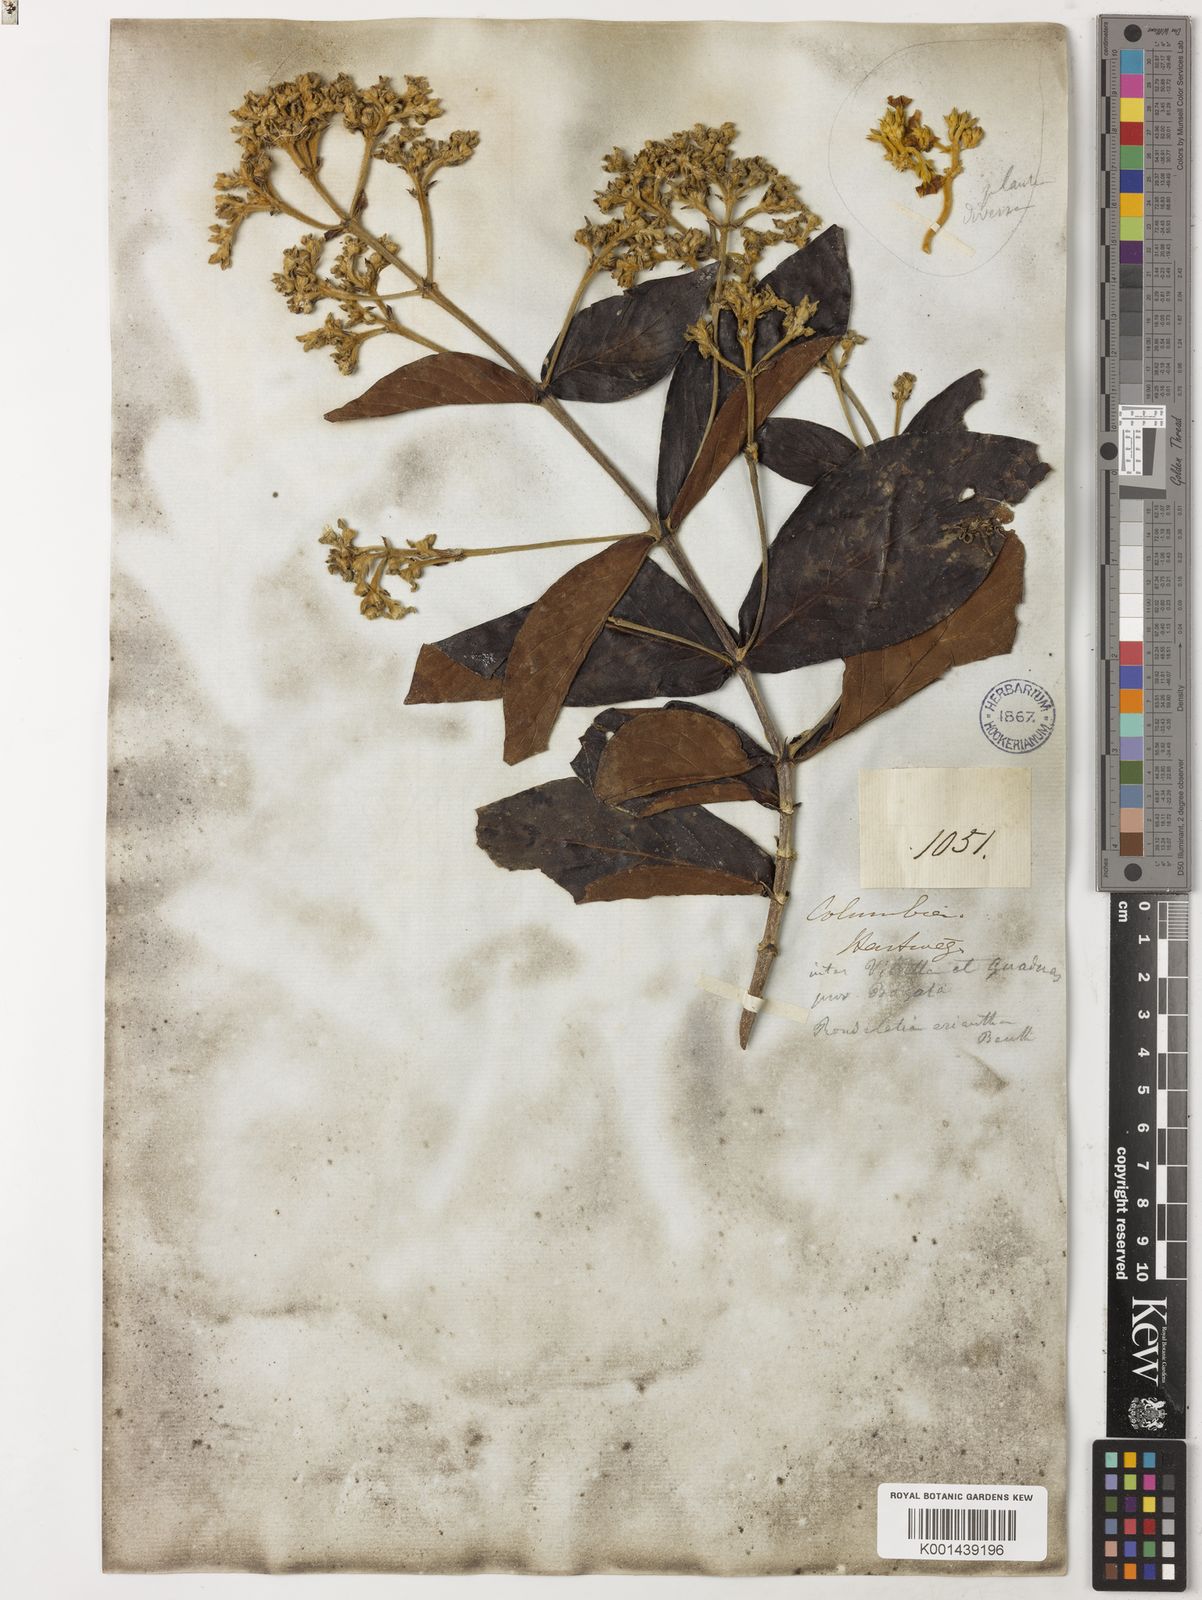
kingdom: Plantae
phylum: Tracheophyta
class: Magnoliopsida
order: Gentianales
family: Rubiaceae
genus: Rondeletia
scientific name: Rondeletia eriantha
